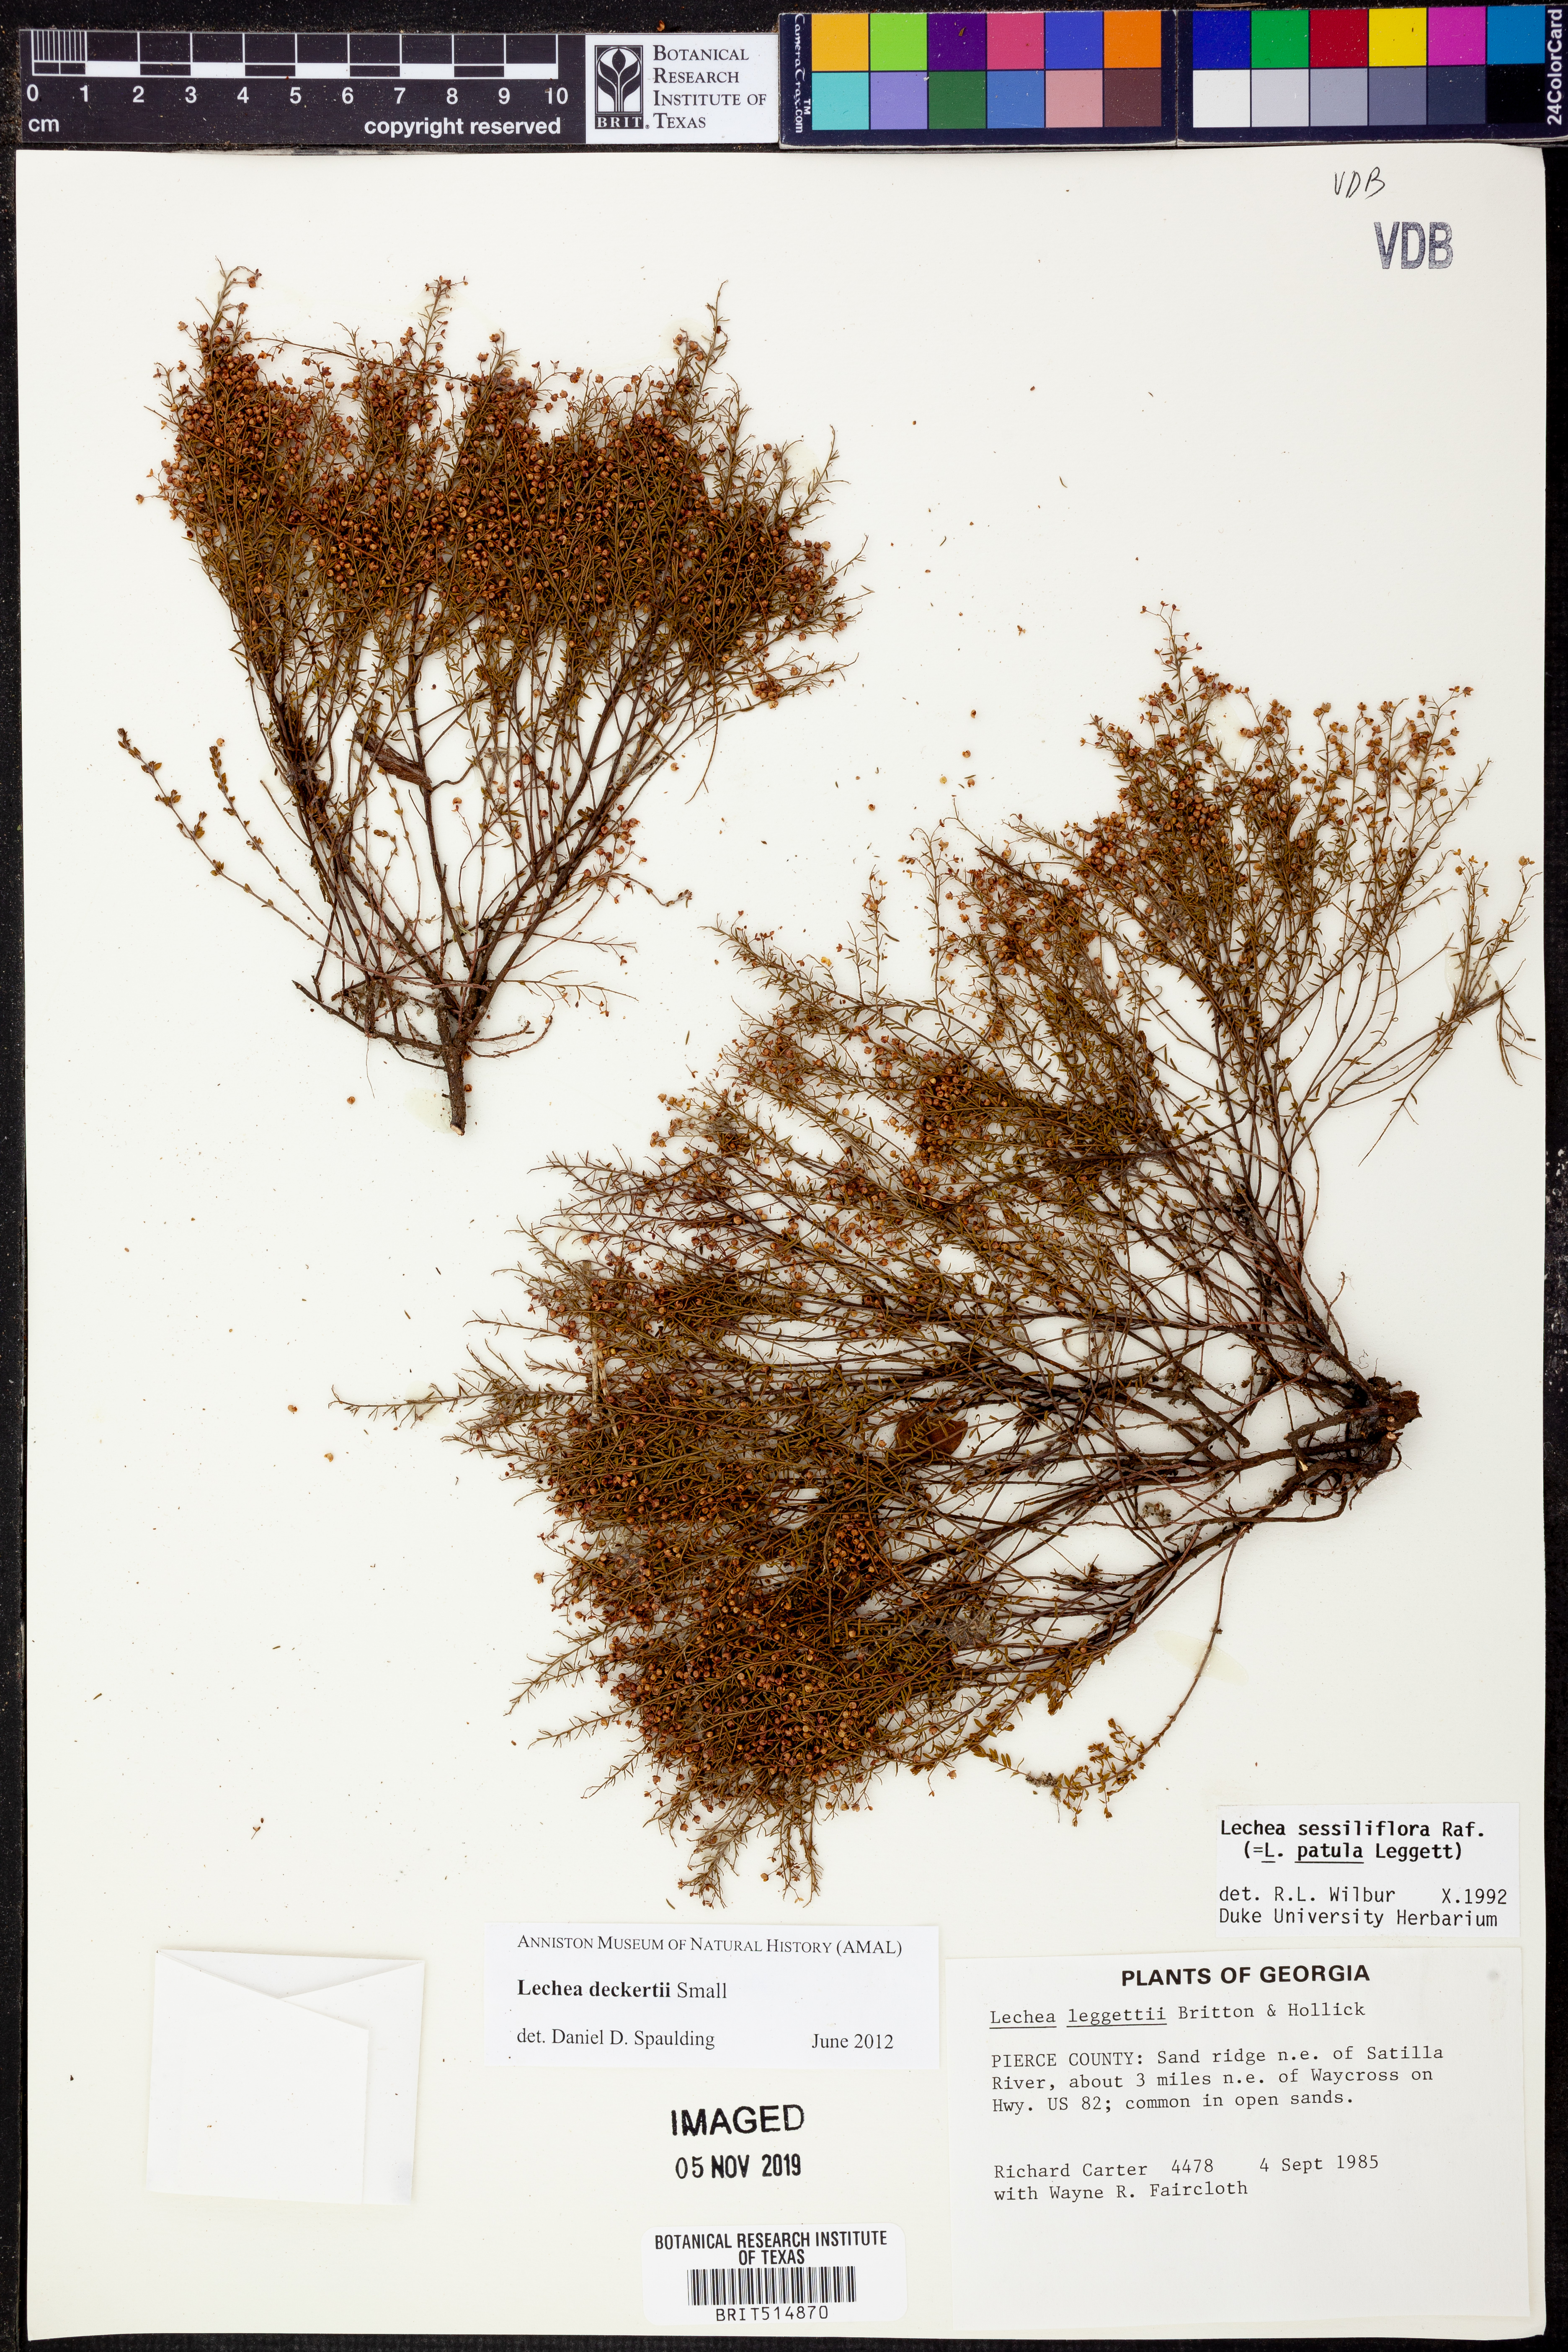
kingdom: Plantae
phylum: Tracheophyta
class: Magnoliopsida
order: Malvales
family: Cistaceae
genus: Lechea
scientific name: Lechea deckertii
